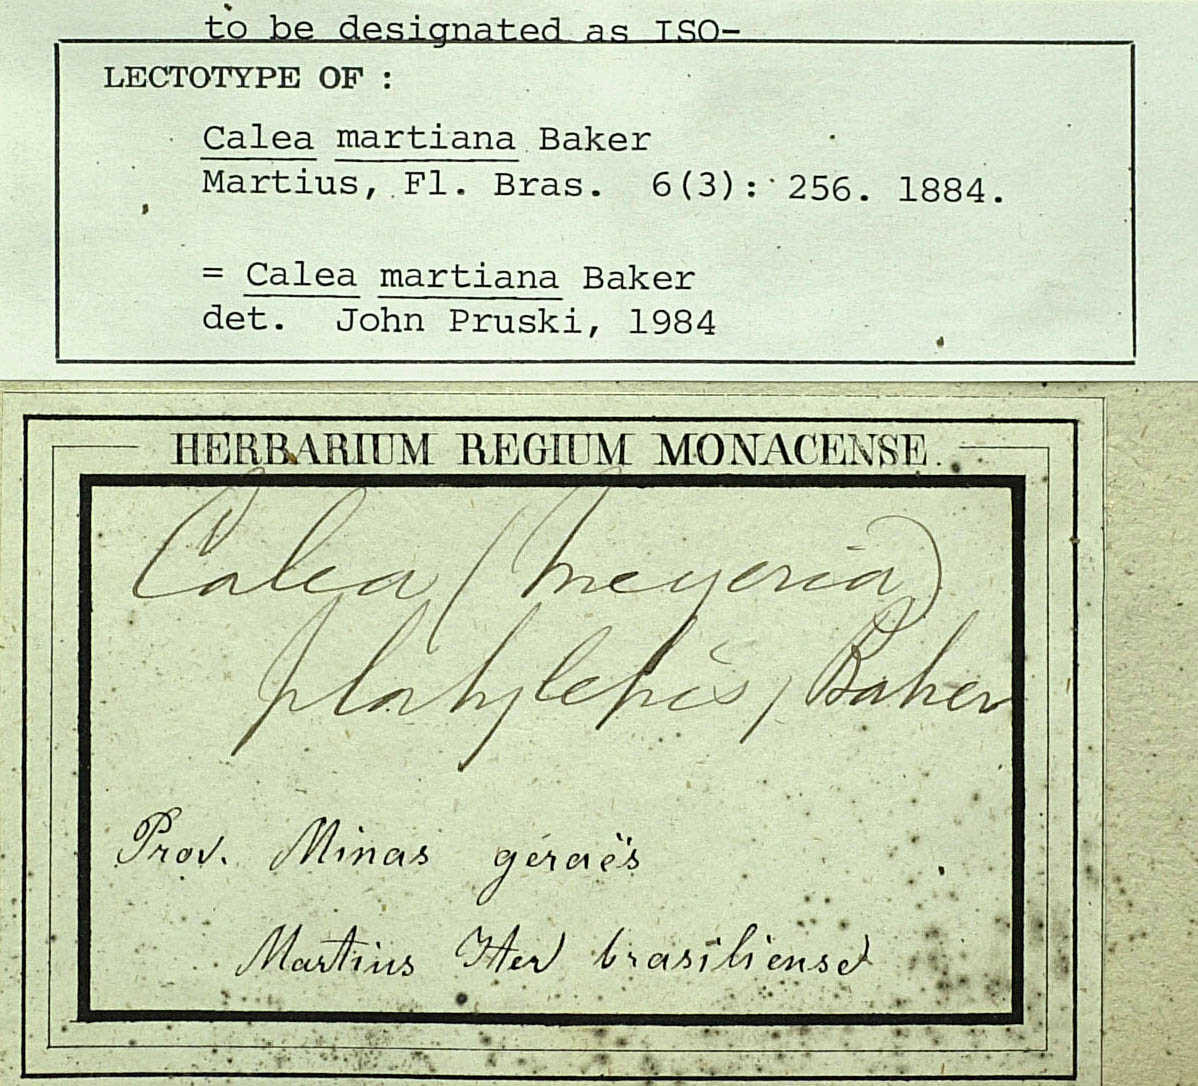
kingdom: Plantae
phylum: Tracheophyta
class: Magnoliopsida
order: Asterales
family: Asteraceae
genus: Calea
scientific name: Calea martiana
